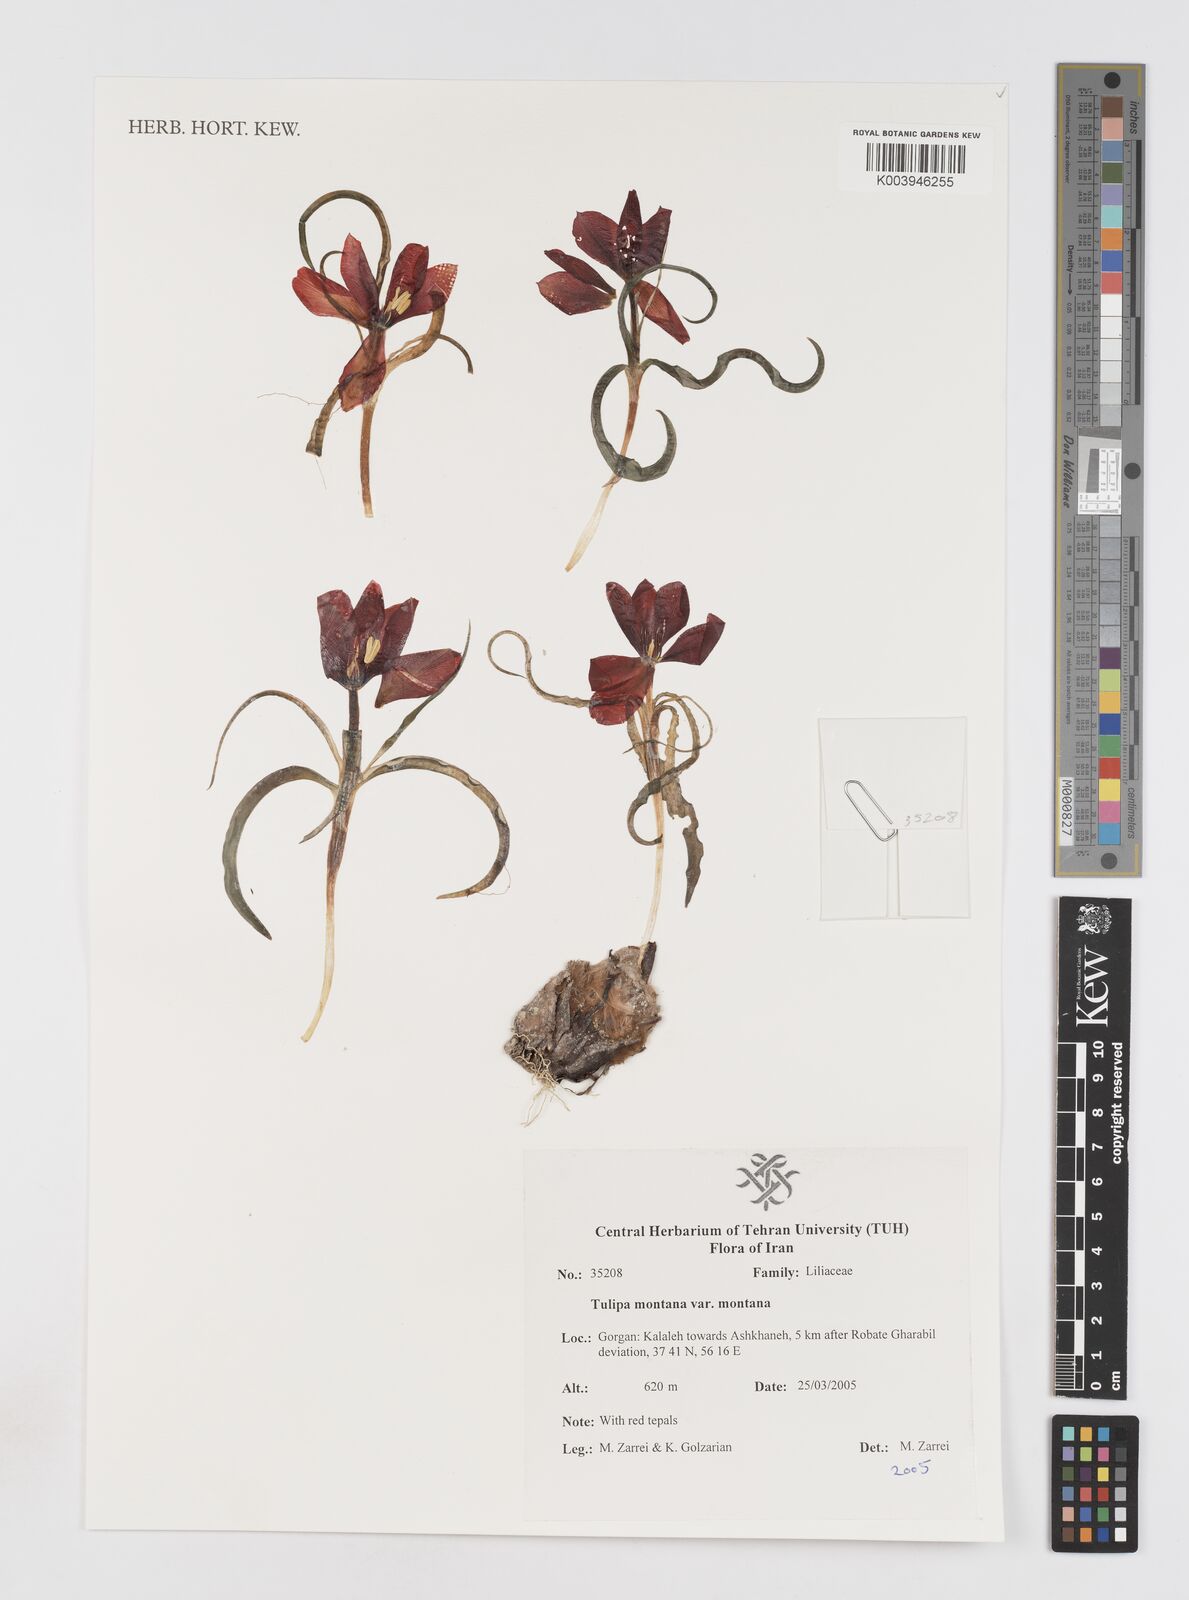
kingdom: Plantae
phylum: Tracheophyta
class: Liliopsida
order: Liliales
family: Liliaceae
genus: Tulipa
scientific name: Tulipa montana
